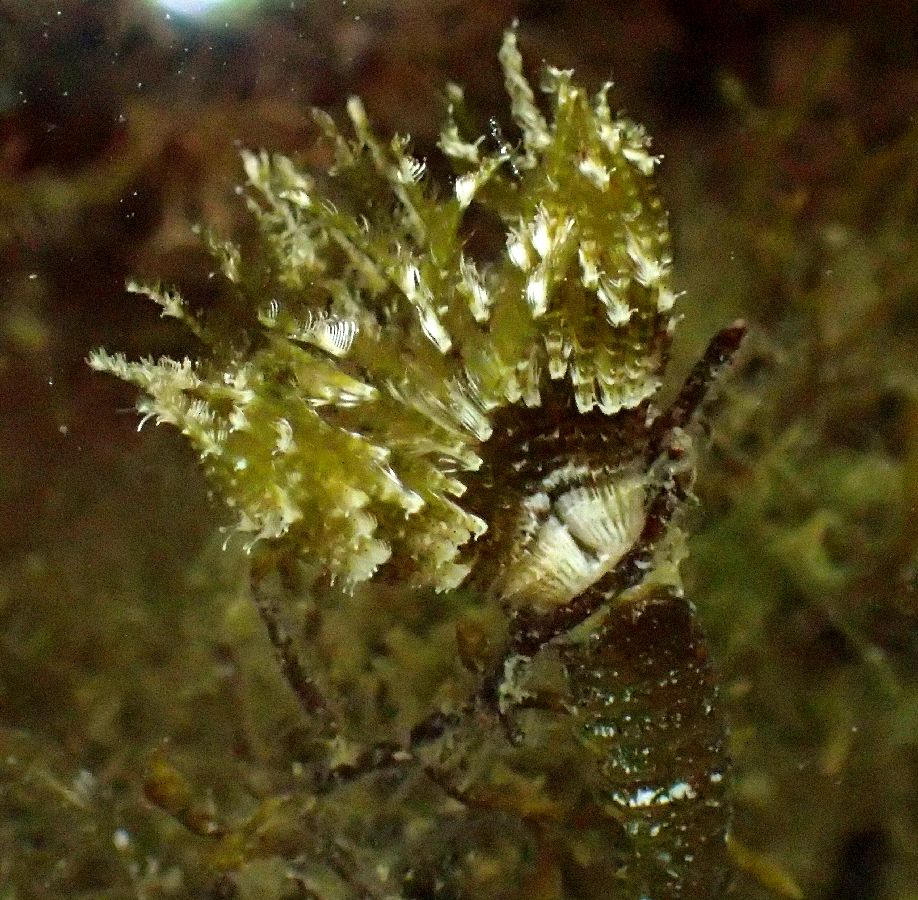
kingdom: Animalia
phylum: Annelida
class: Polychaeta
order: Sabellida
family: Sabellidae
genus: Pseudopotamilla
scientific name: Pseudopotamilla reniformis
